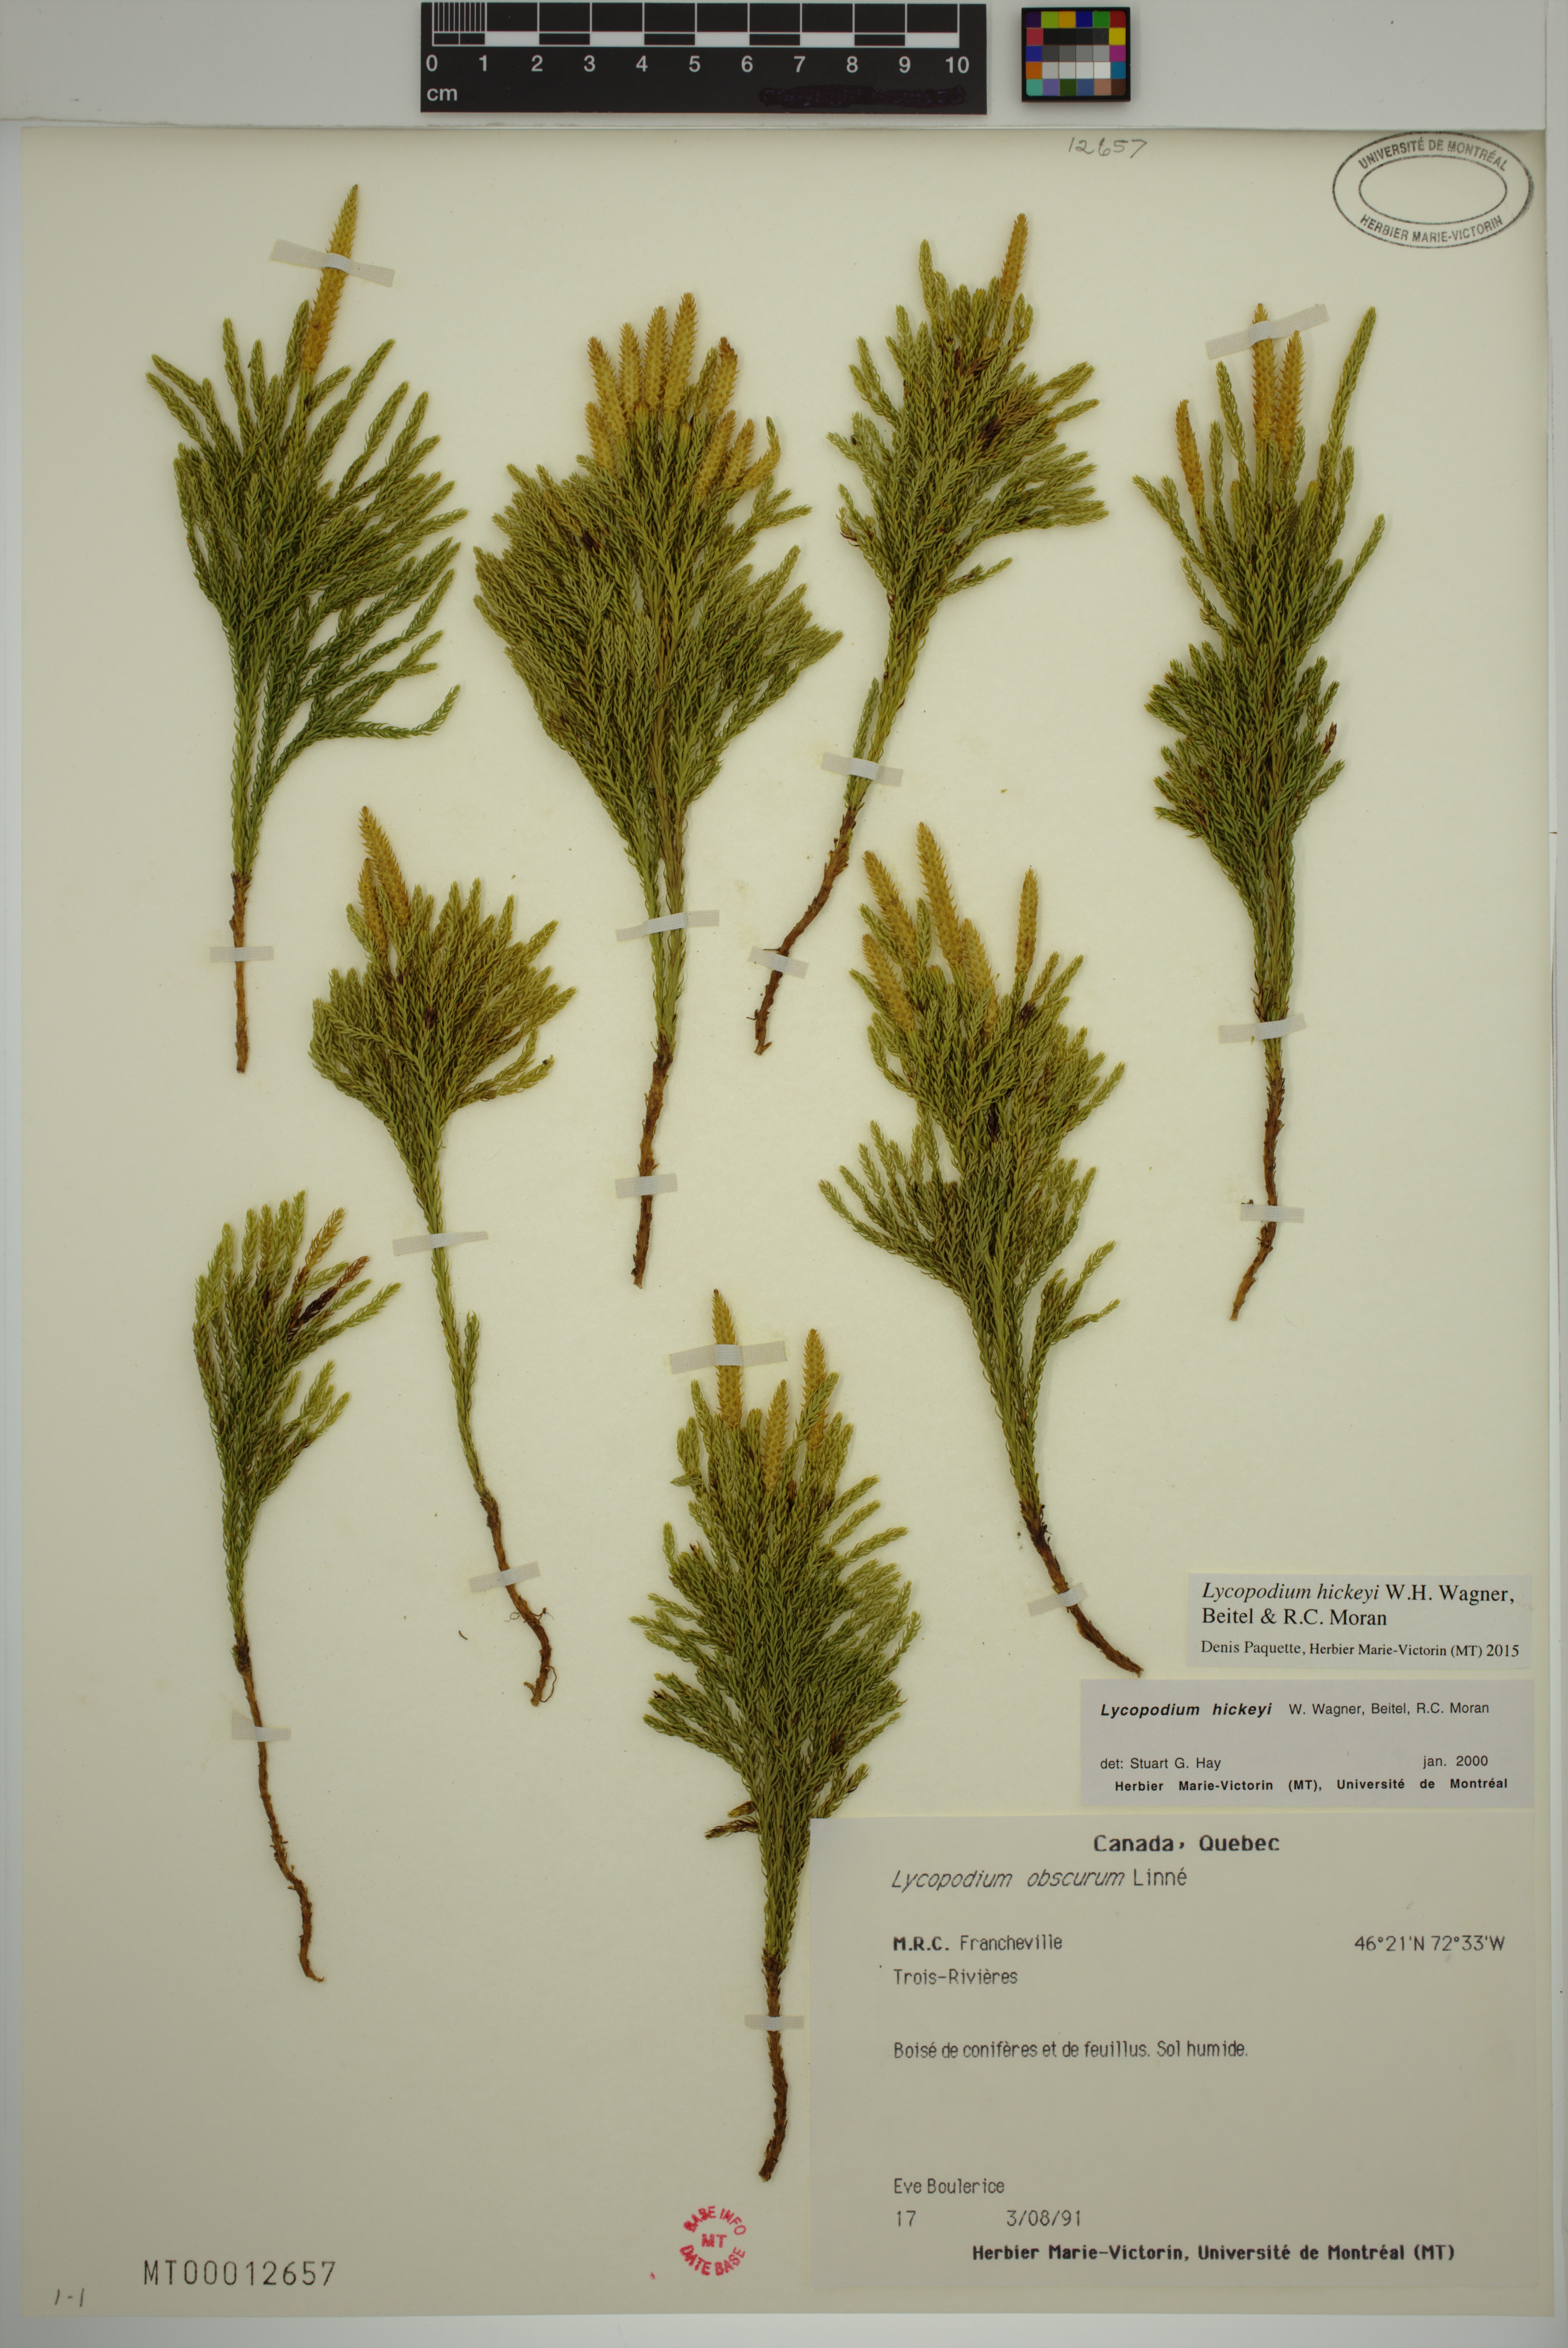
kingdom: Plantae
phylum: Tracheophyta
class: Lycopodiopsida
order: Lycopodiales
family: Lycopodiaceae
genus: Dendrolycopodium
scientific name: Dendrolycopodium hickeyi
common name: Hickey's clubmoss
